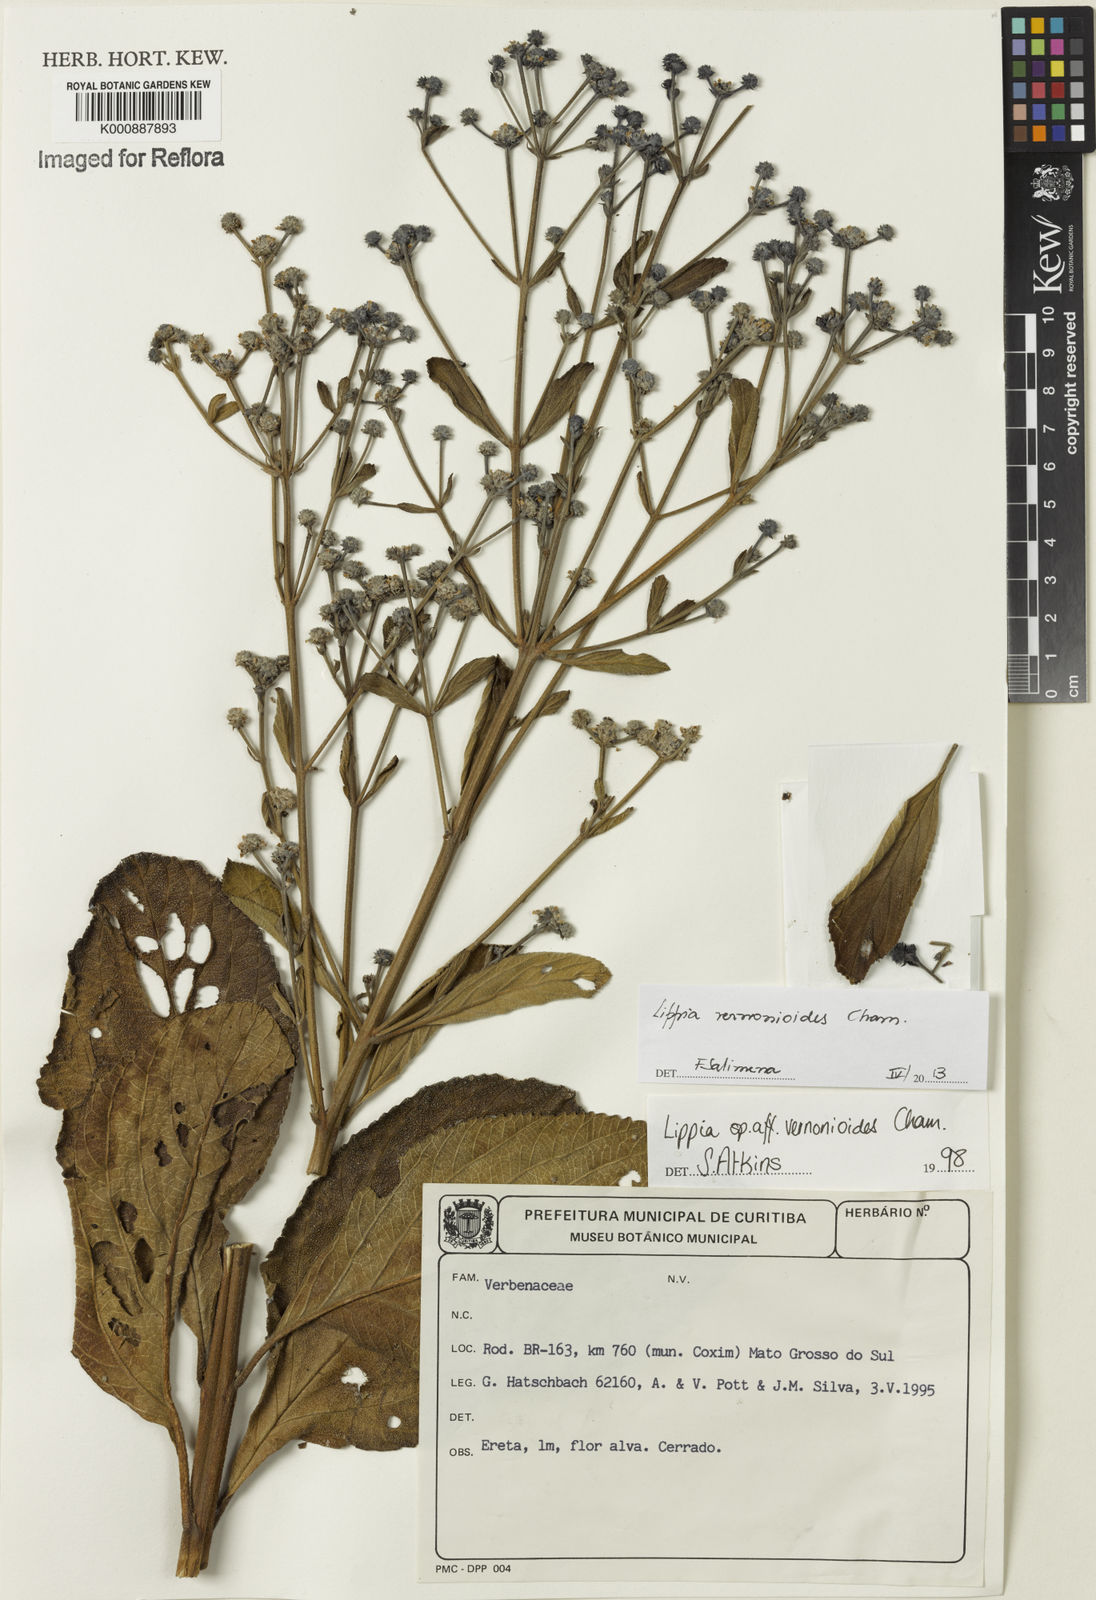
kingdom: Plantae
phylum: Tracheophyta
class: Magnoliopsida
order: Lamiales
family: Verbenaceae
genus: Lippia
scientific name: Lippia vernonioides
